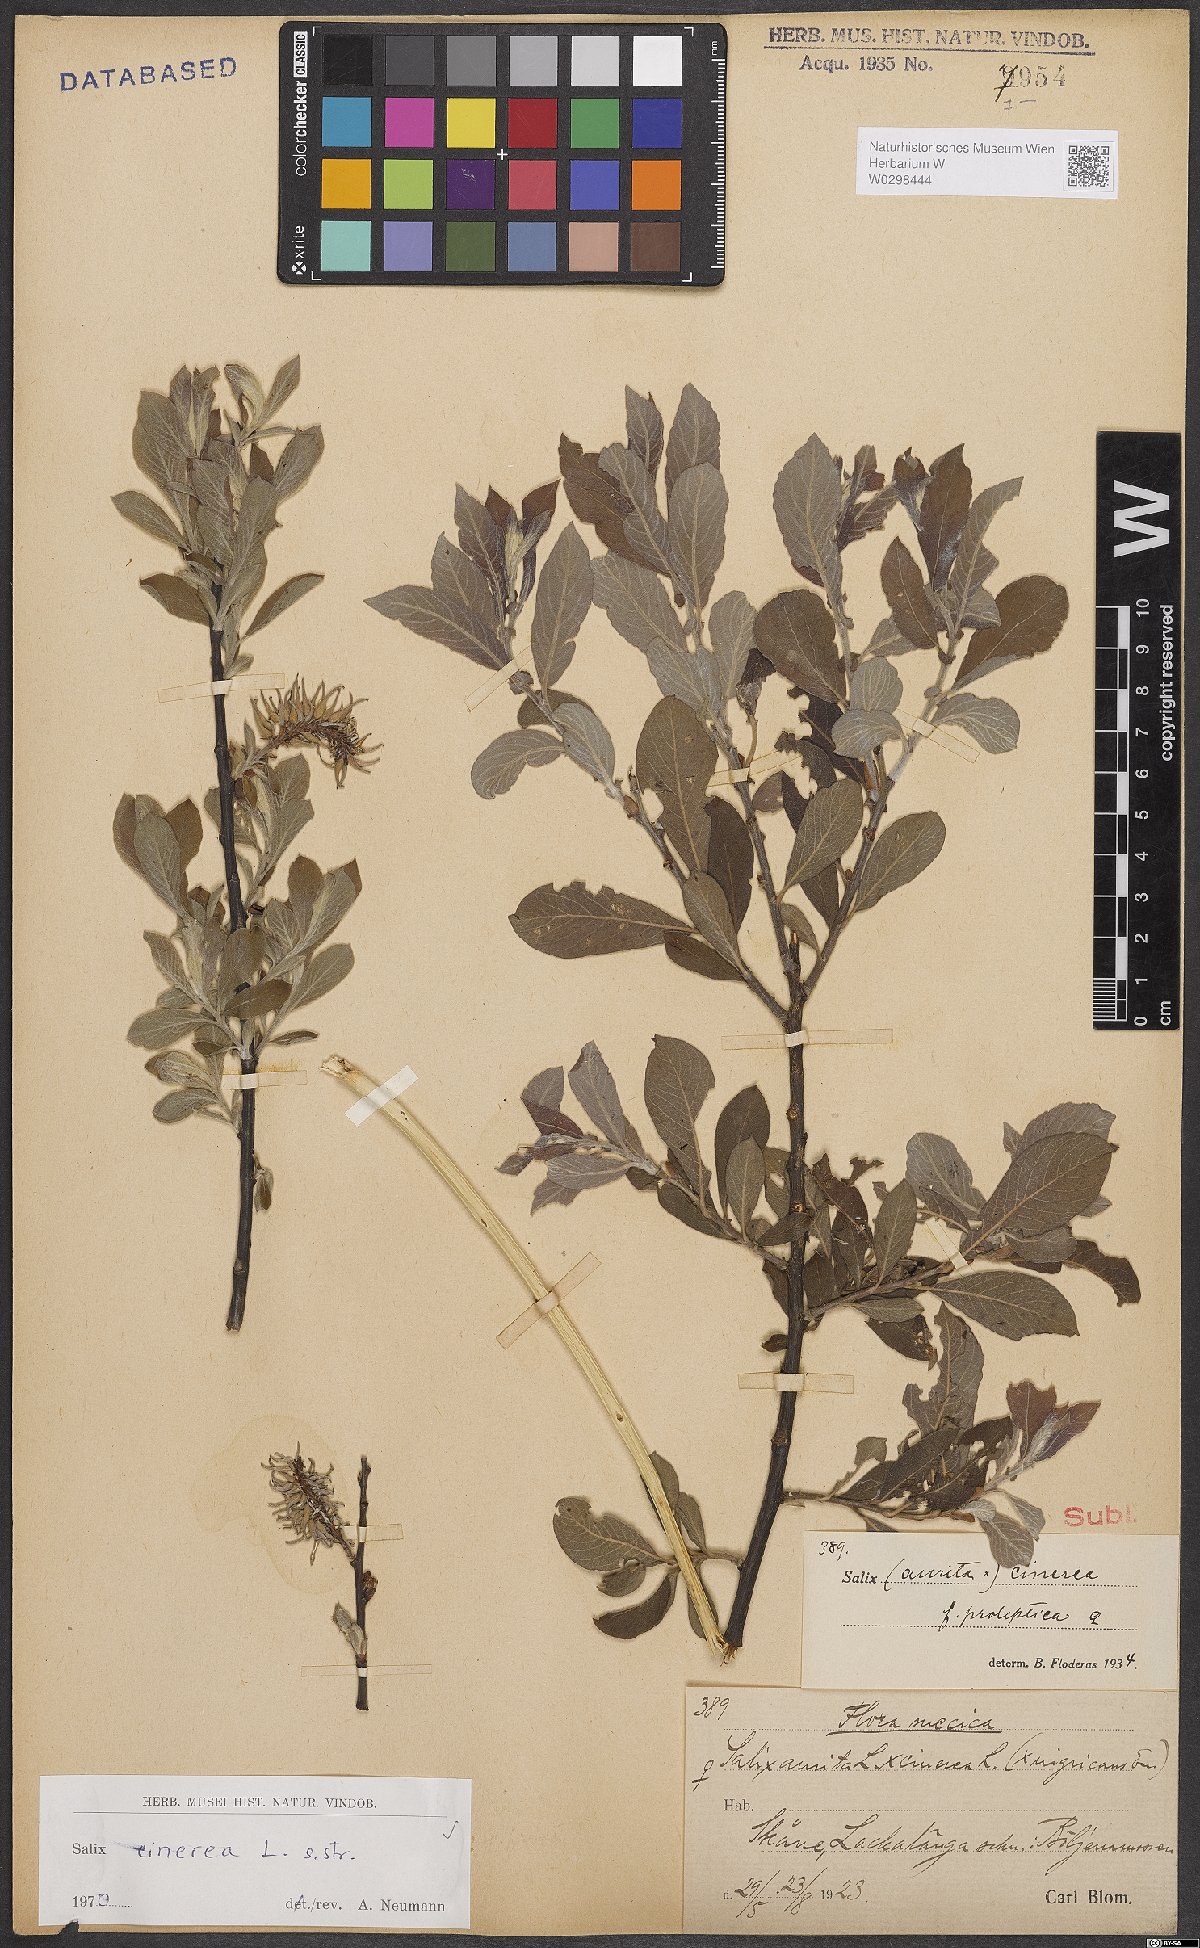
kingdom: Plantae
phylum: Tracheophyta
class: Magnoliopsida
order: Malpighiales
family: Salicaceae
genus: Salix
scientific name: Salix cinerea
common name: Common sallow
